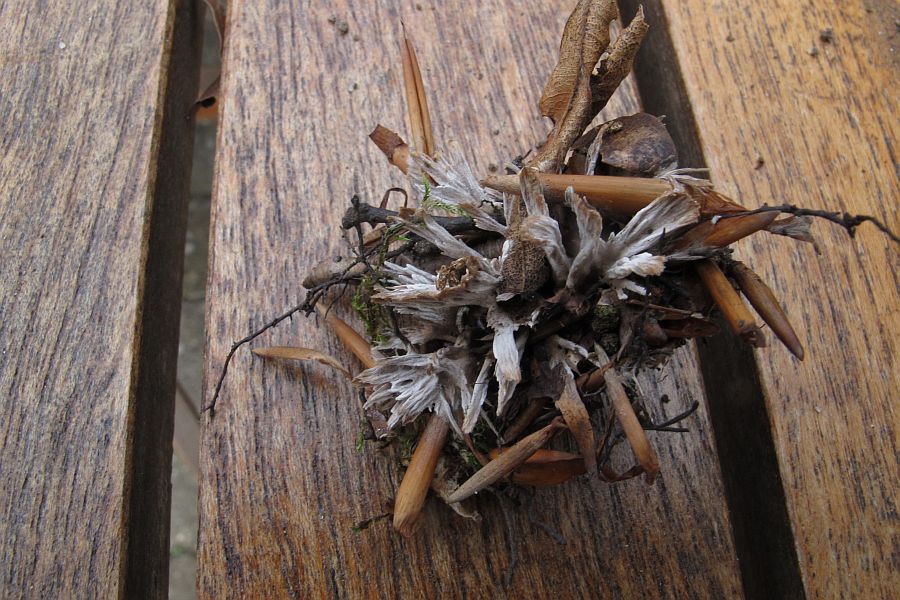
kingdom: Fungi
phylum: Basidiomycota
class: Agaricomycetes
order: Thelephorales
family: Thelephoraceae
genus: Thelephora
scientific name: Thelephora penicillata
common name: fladtrådt frynsesvamp
